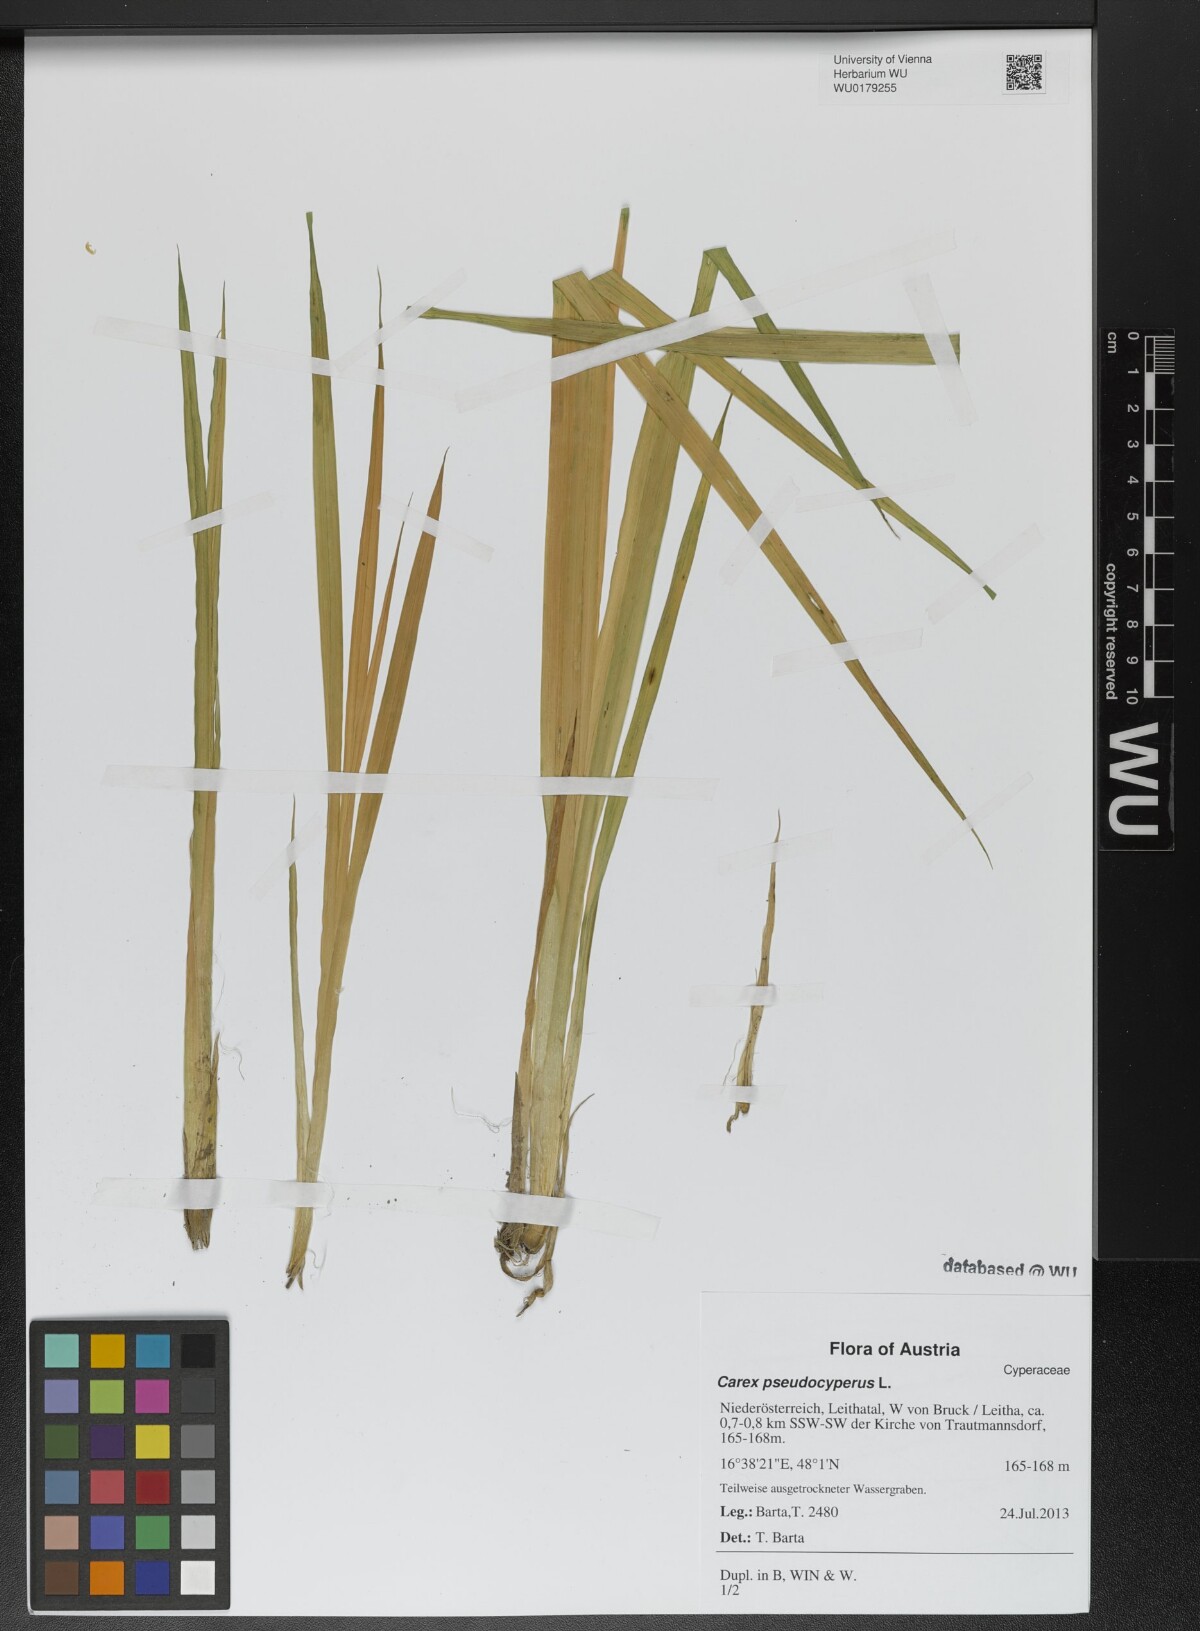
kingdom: Plantae
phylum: Tracheophyta
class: Liliopsida
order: Poales
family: Cyperaceae
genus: Carex
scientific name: Carex pseudocyperus
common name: Cyperus sedge
